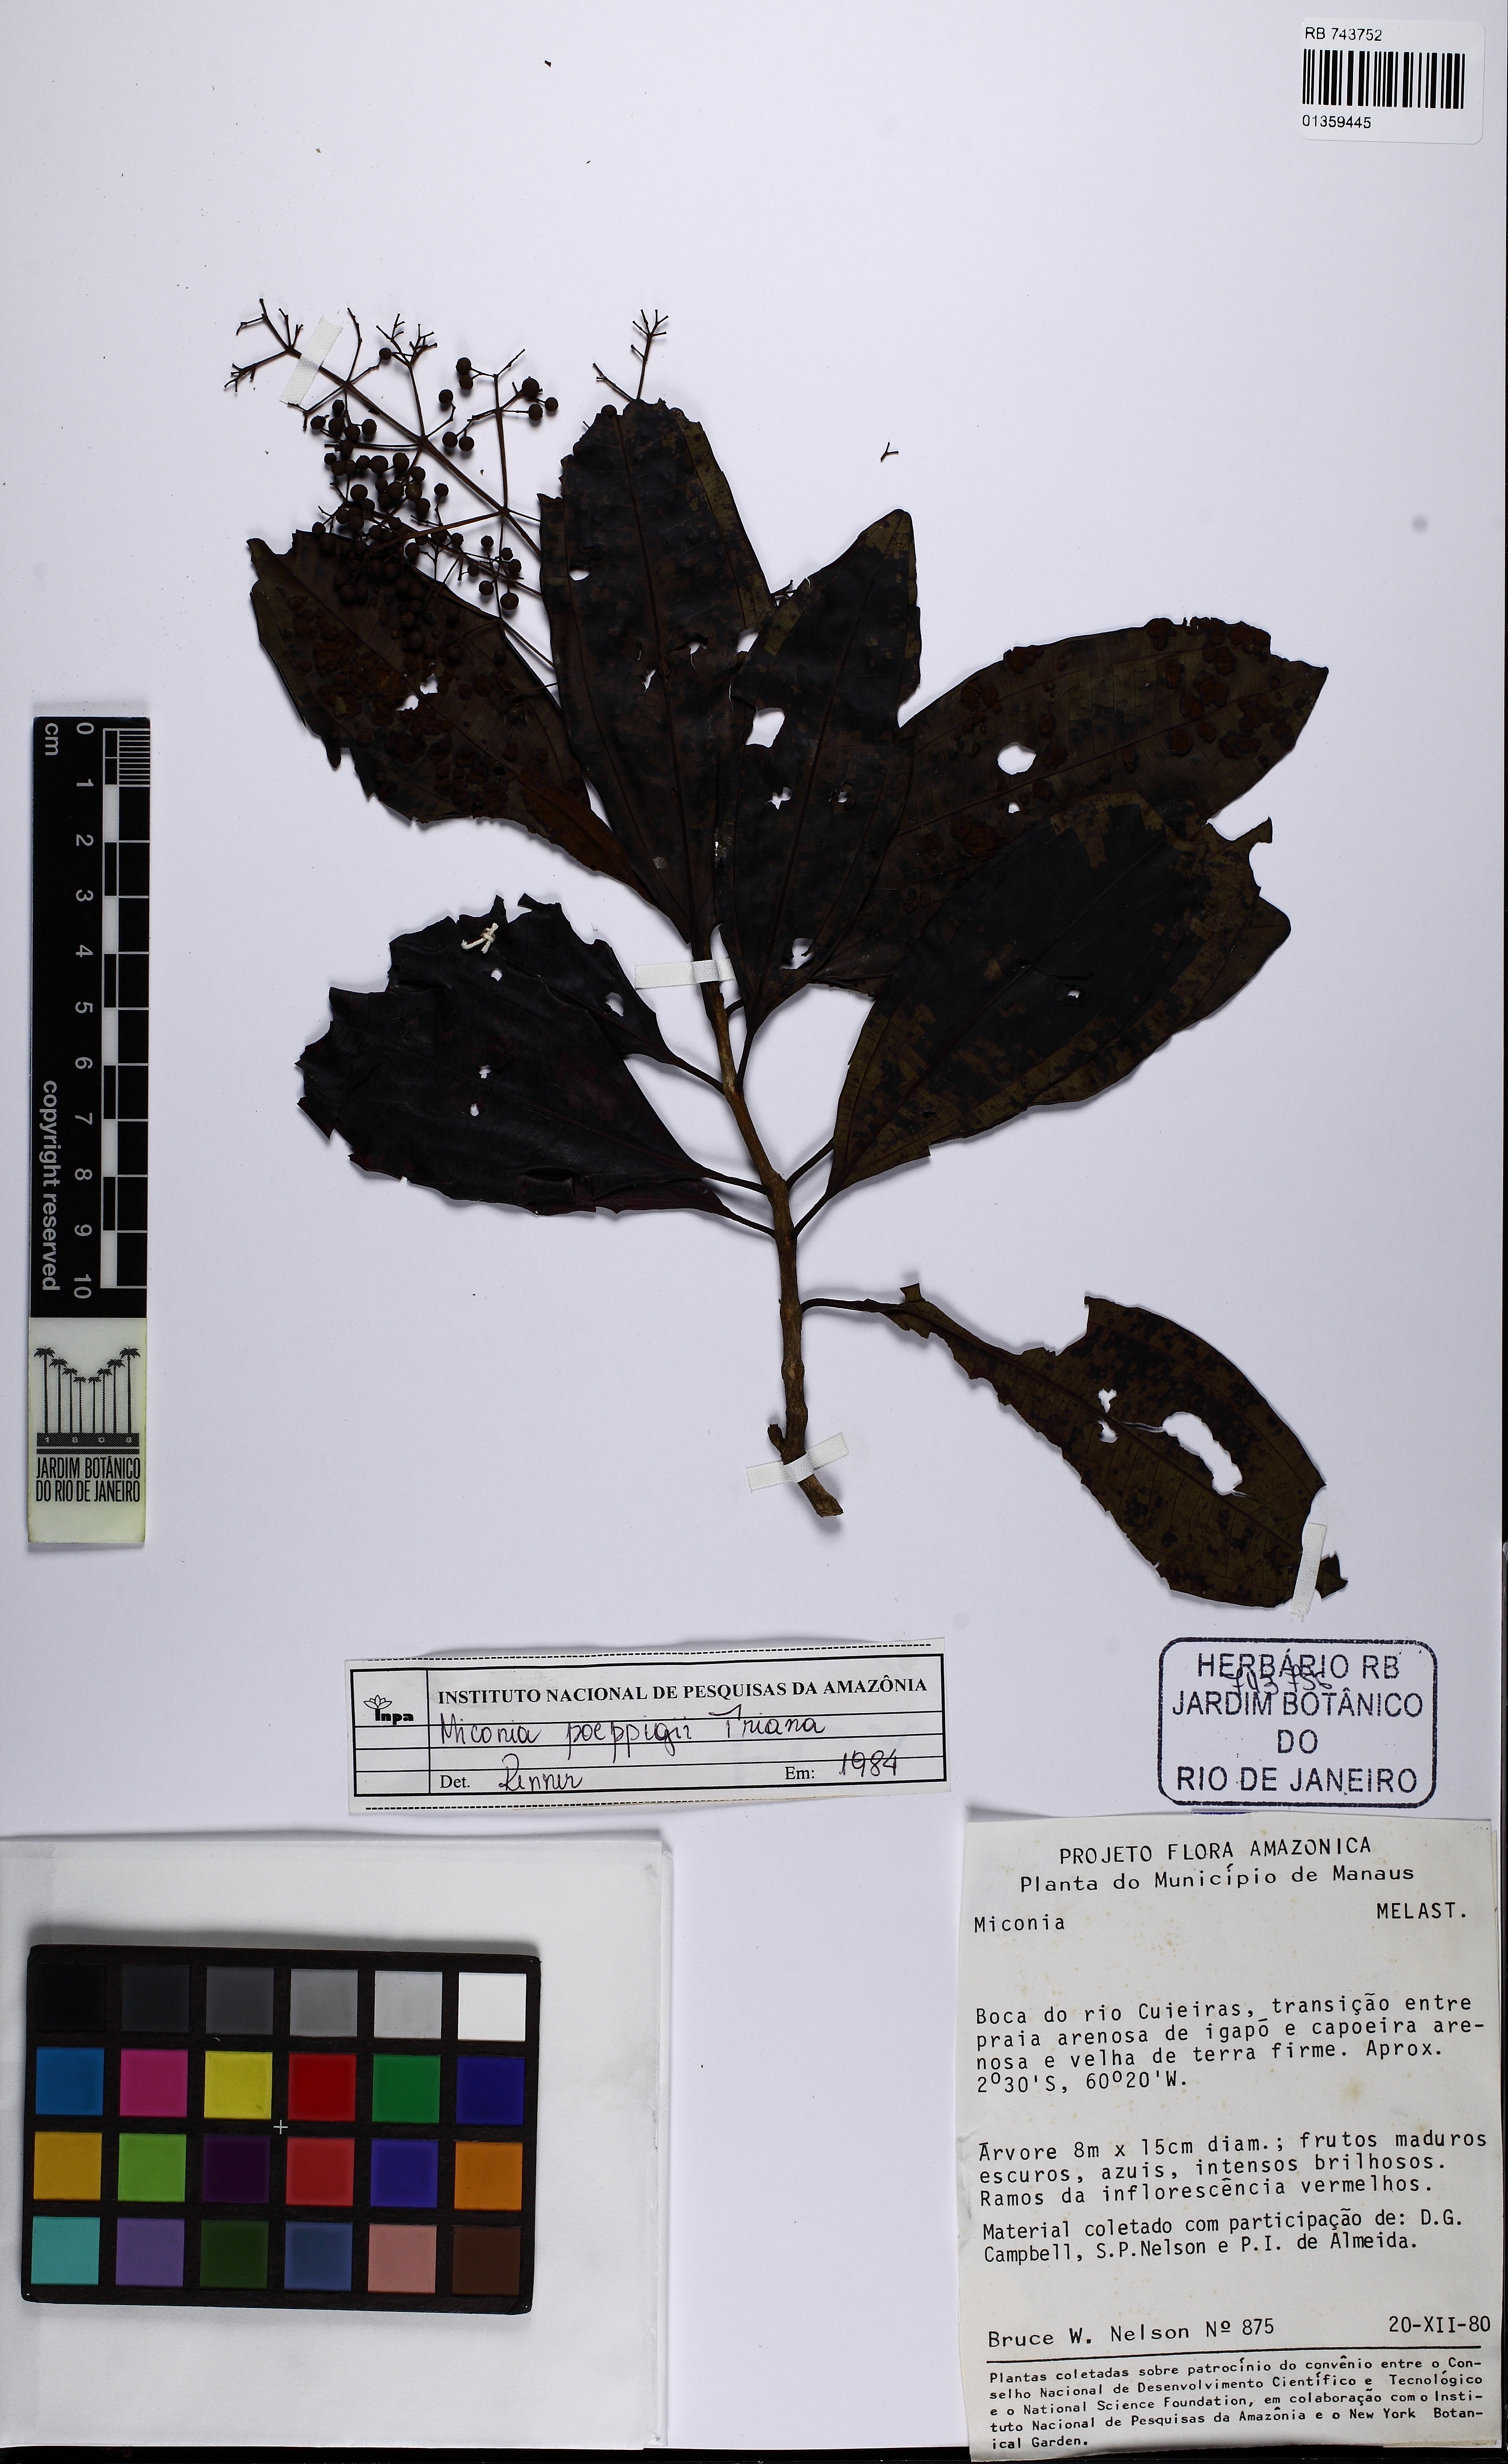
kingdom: Plantae
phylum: Tracheophyta
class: Magnoliopsida
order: Myrtales
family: Melastomataceae
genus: Miconia
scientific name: Miconia poeppigii
